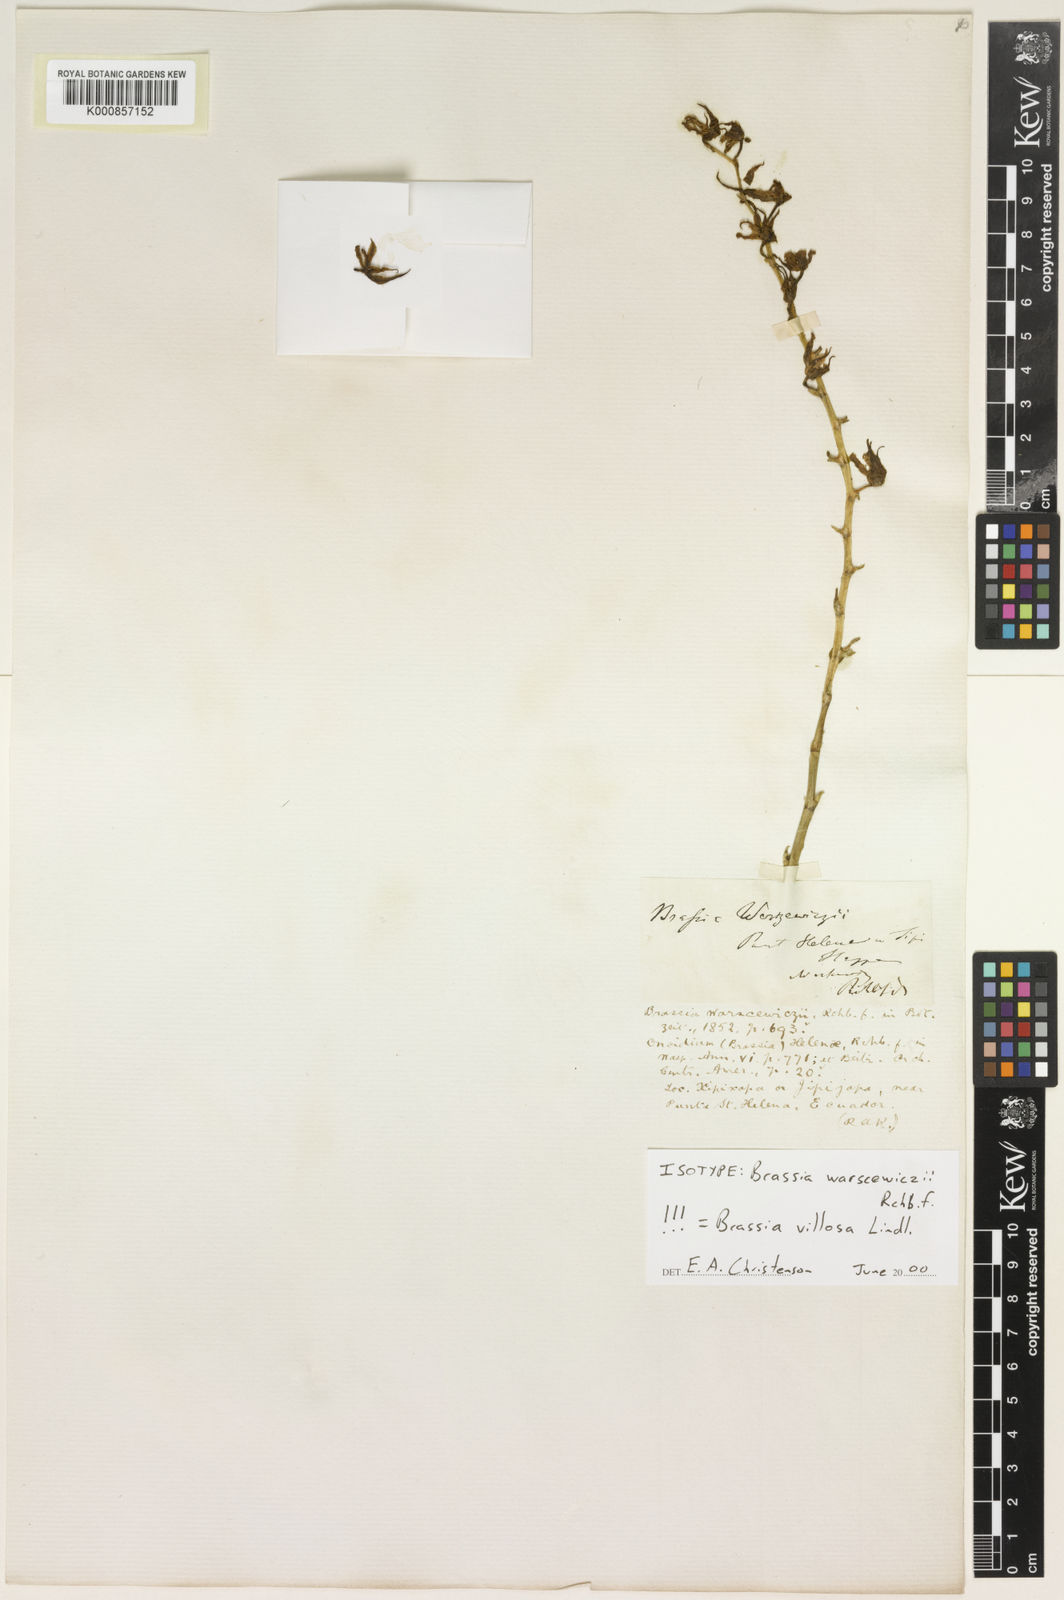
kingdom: Plantae
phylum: Tracheophyta
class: Liliopsida
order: Asparagales
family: Orchidaceae
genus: Brassia
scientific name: Brassia villosa
